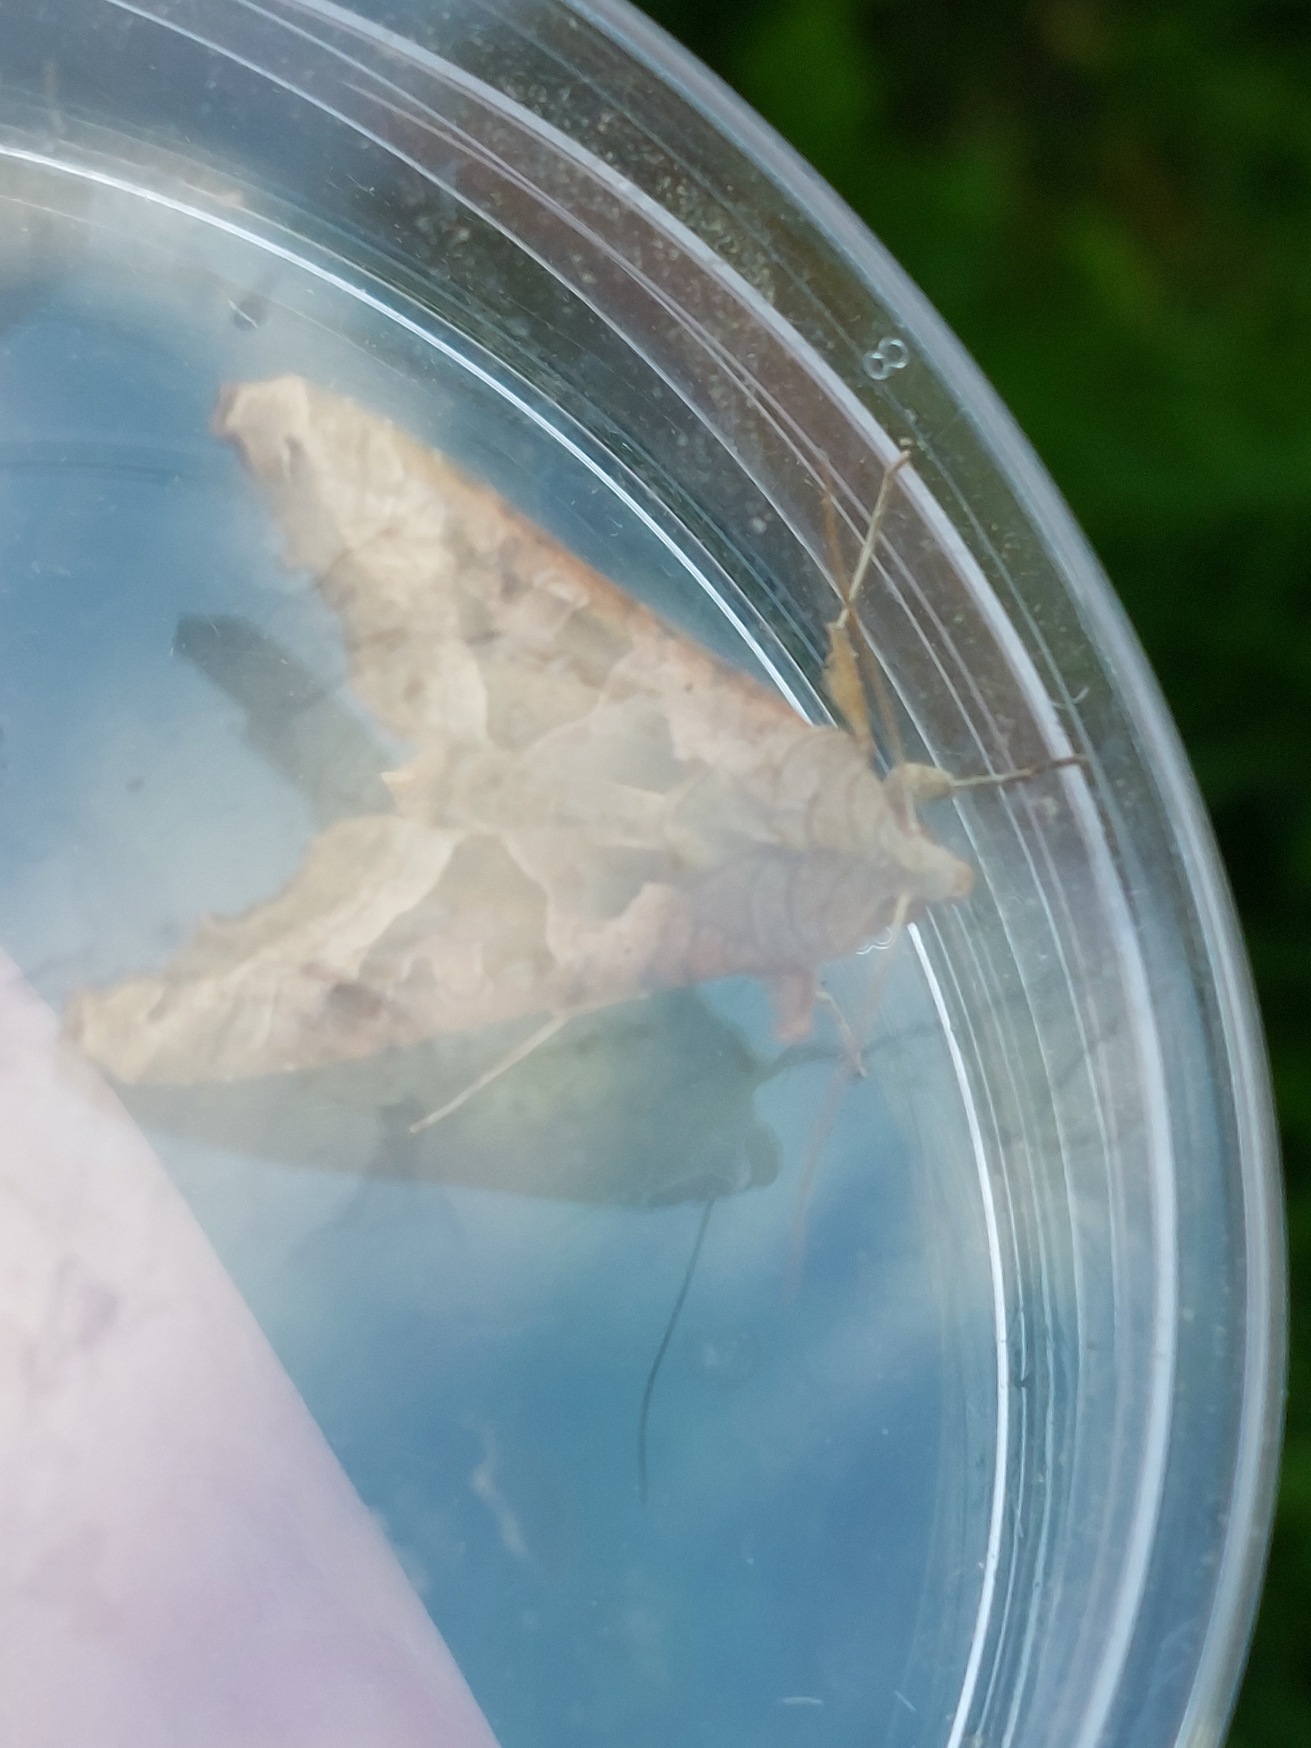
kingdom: Animalia
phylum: Arthropoda
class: Insecta
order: Lepidoptera
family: Noctuidae
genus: Phlogophora
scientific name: Phlogophora meticulosa
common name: Agatugle
